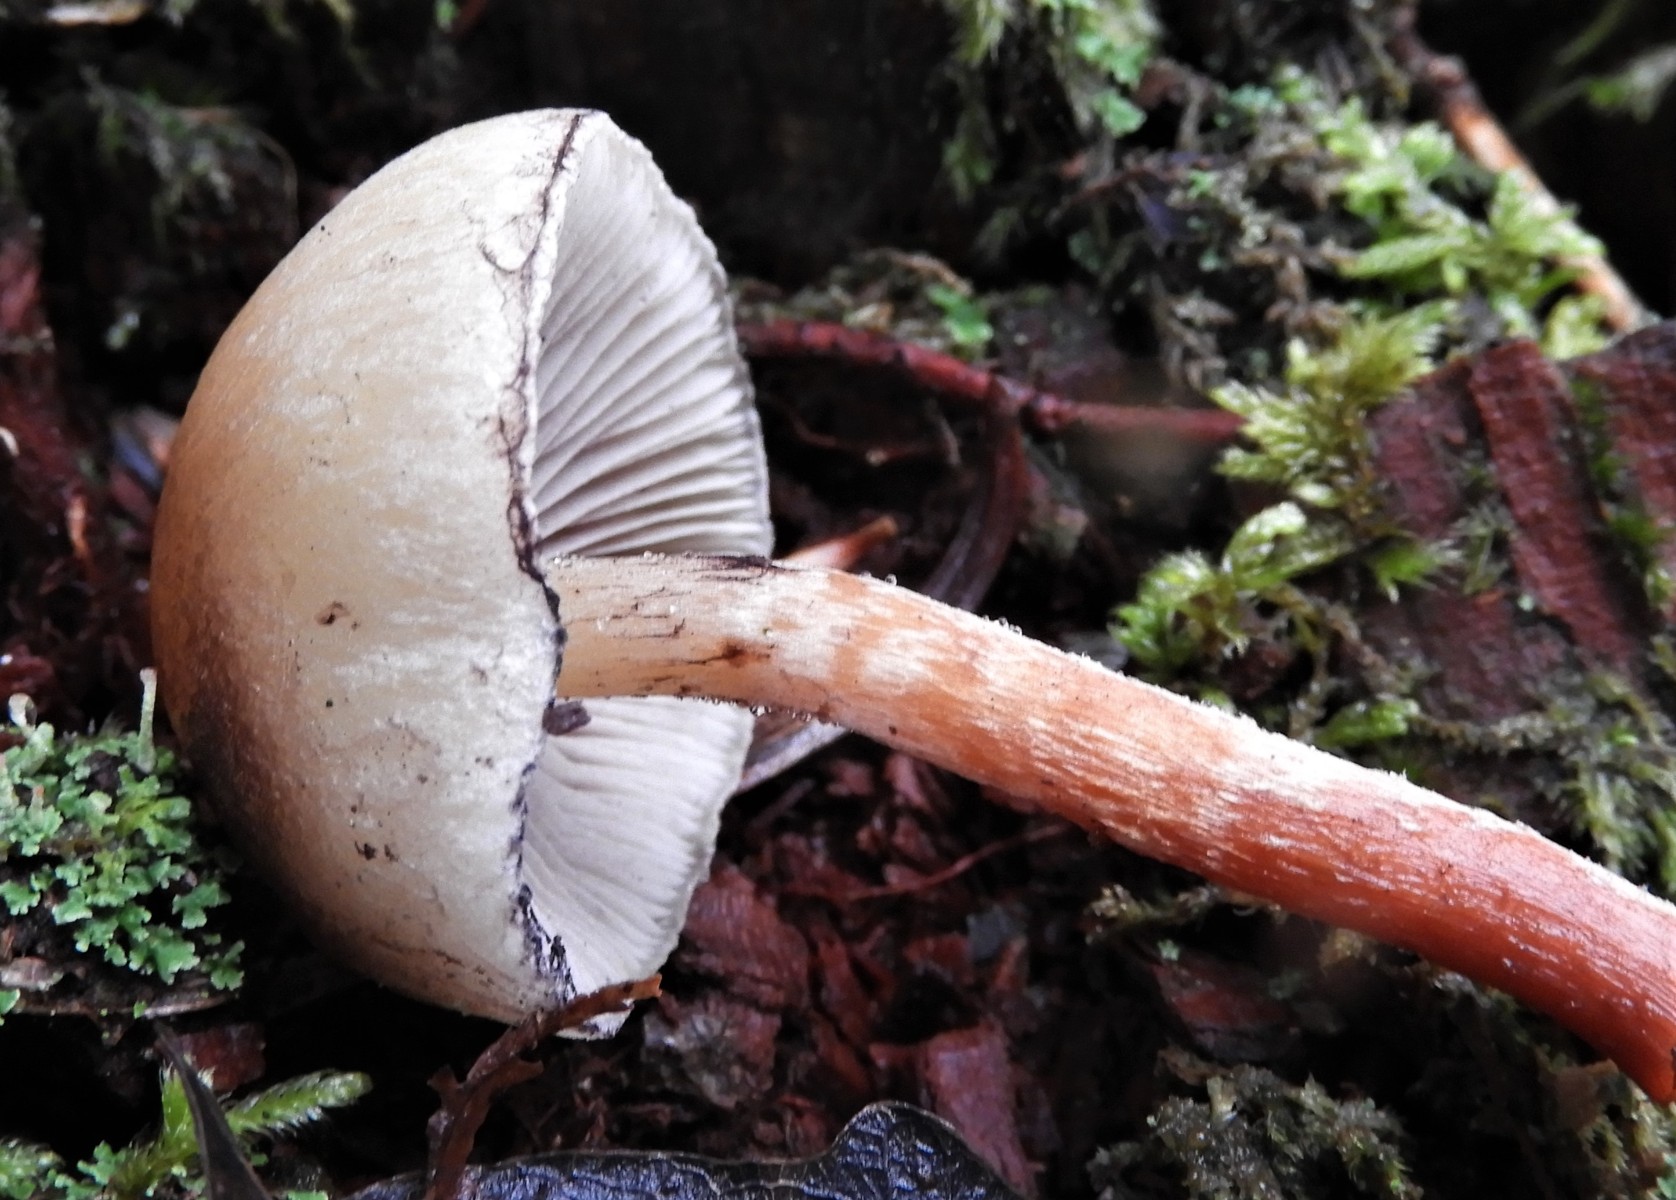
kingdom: Fungi
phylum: Basidiomycota
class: Agaricomycetes
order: Agaricales
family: Strophariaceae
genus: Hypholoma
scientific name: Hypholoma
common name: svovlhat
